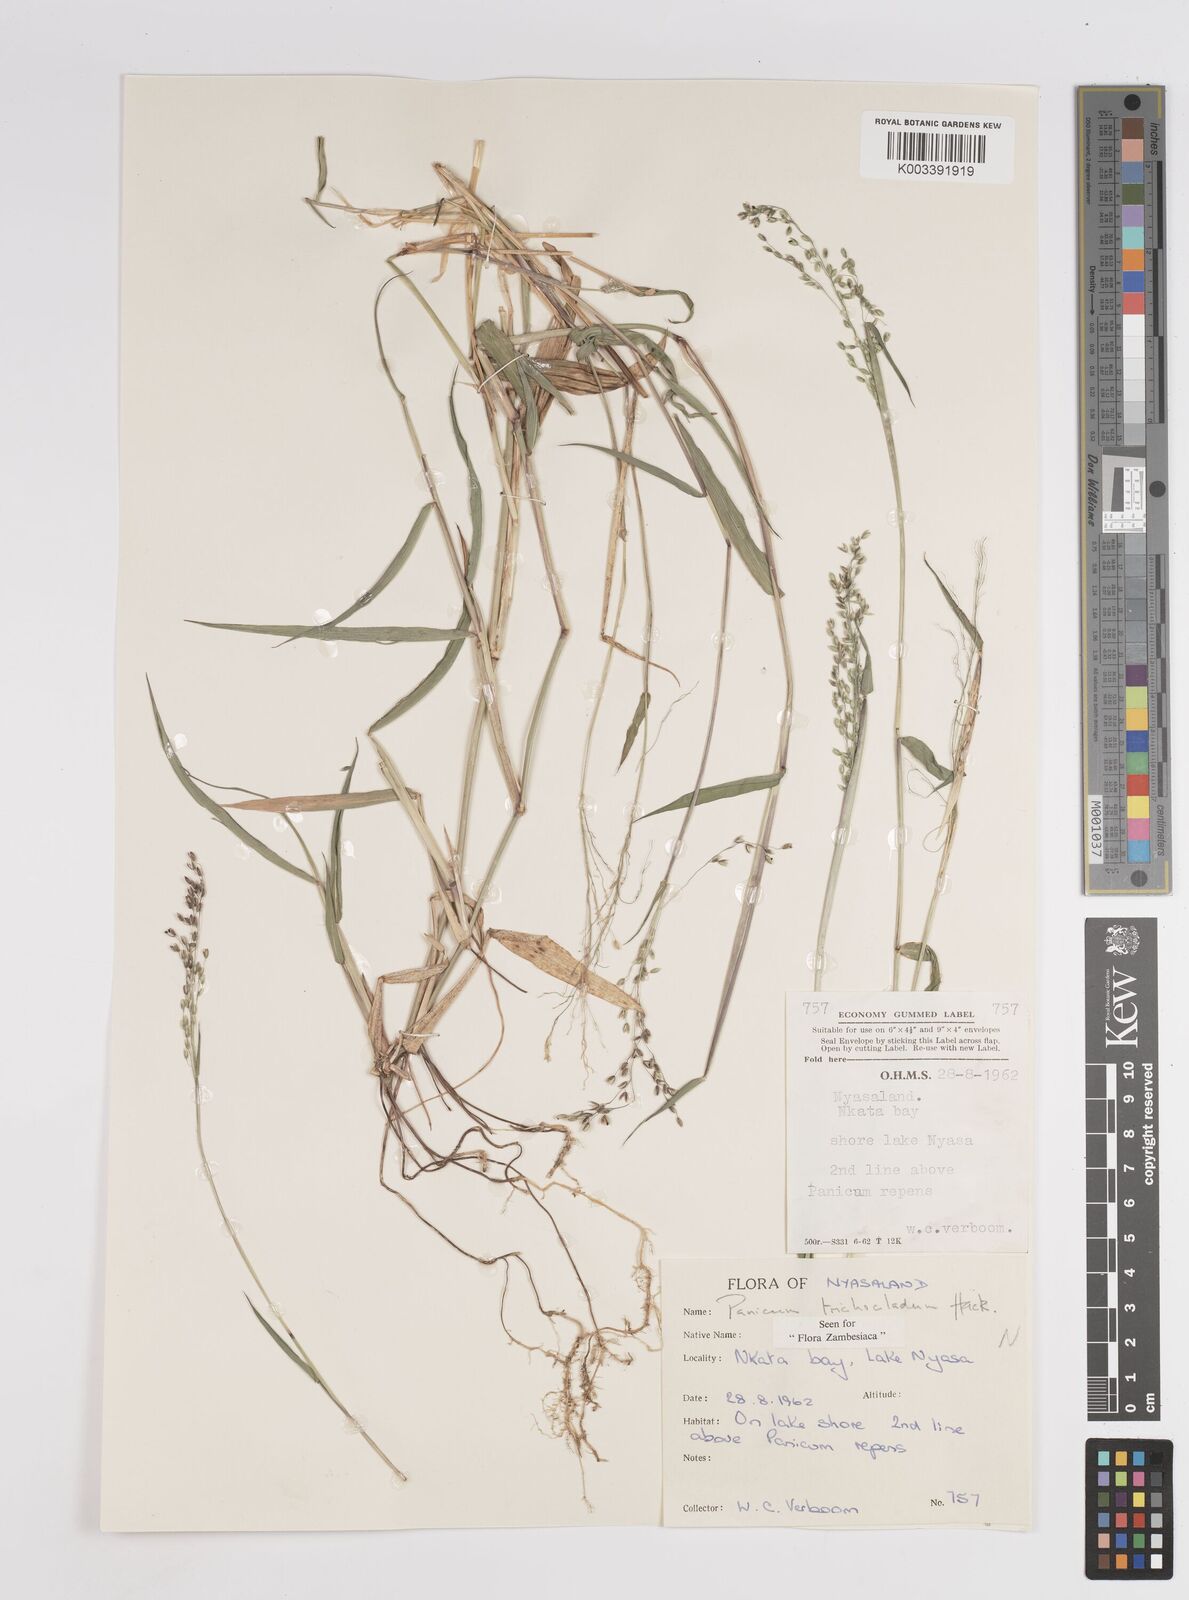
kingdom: Plantae
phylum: Tracheophyta
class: Liliopsida
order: Poales
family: Poaceae
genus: Panicum
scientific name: Panicum trichocladum
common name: Donkey grass
